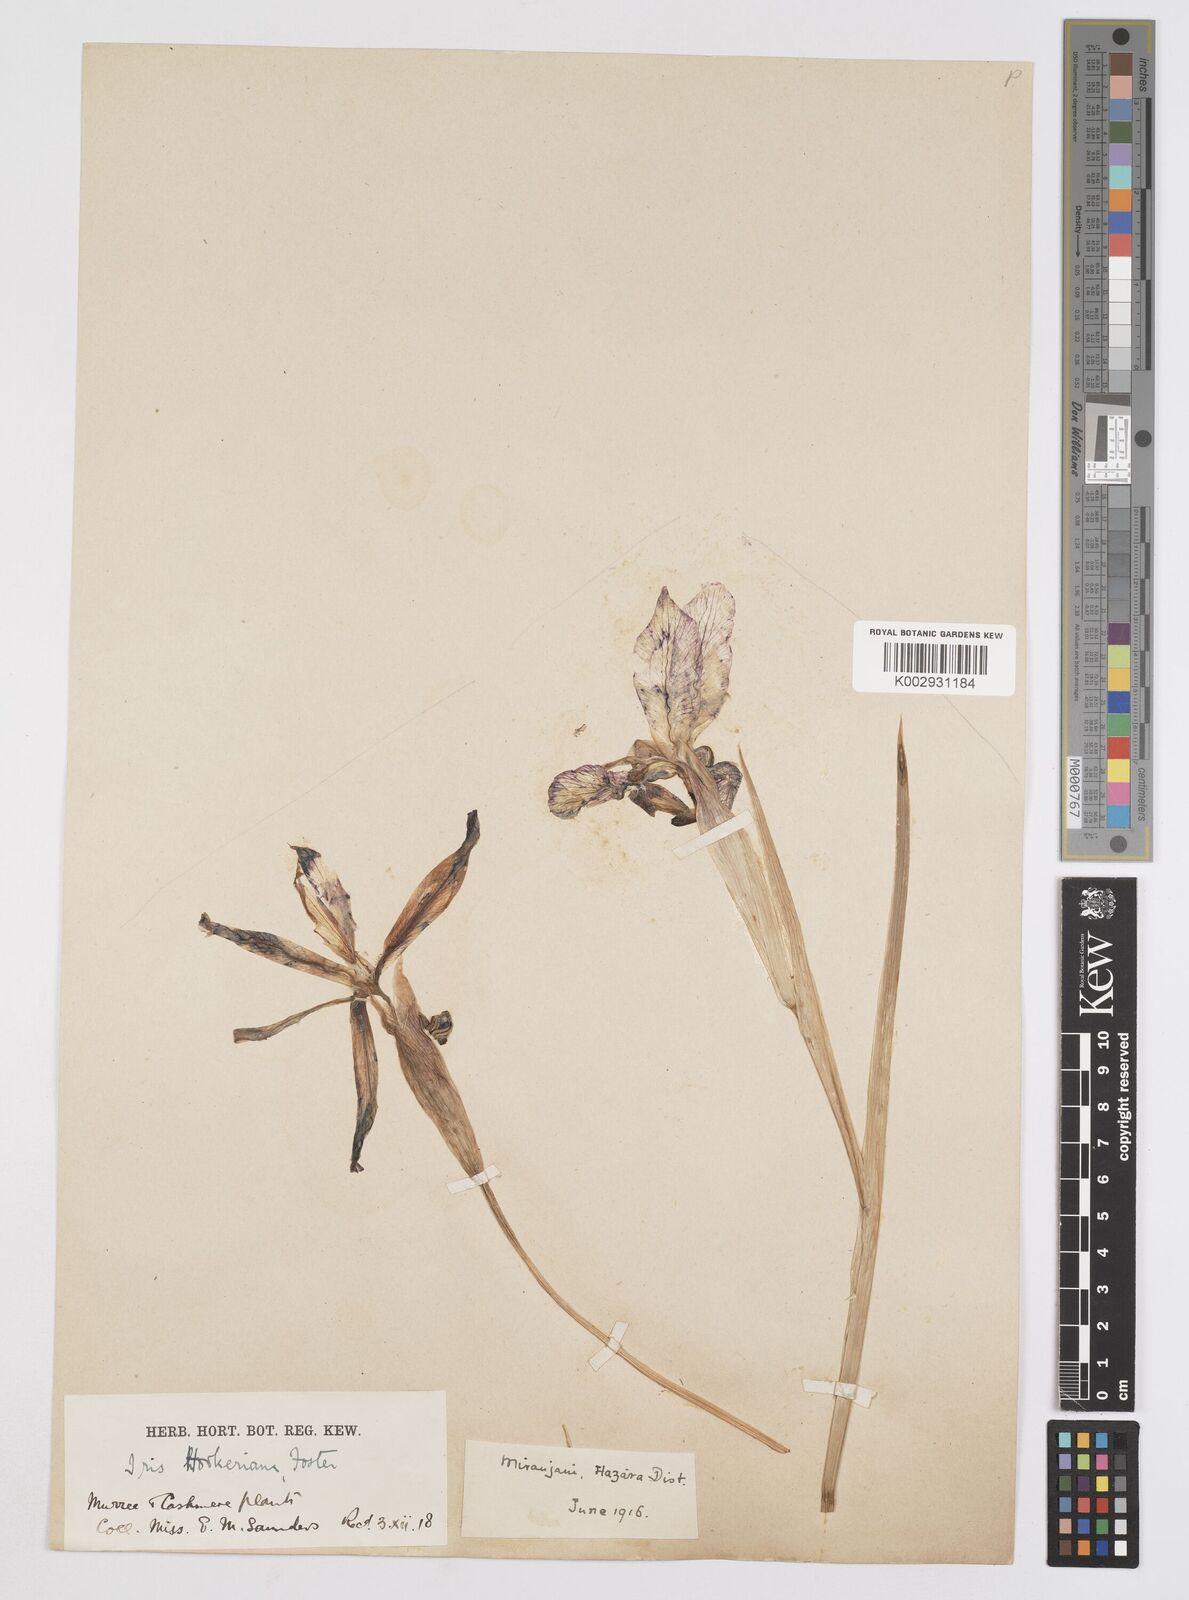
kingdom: Plantae
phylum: Tracheophyta
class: Liliopsida
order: Asparagales
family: Iridaceae
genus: Iris
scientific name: Iris hookeriana
